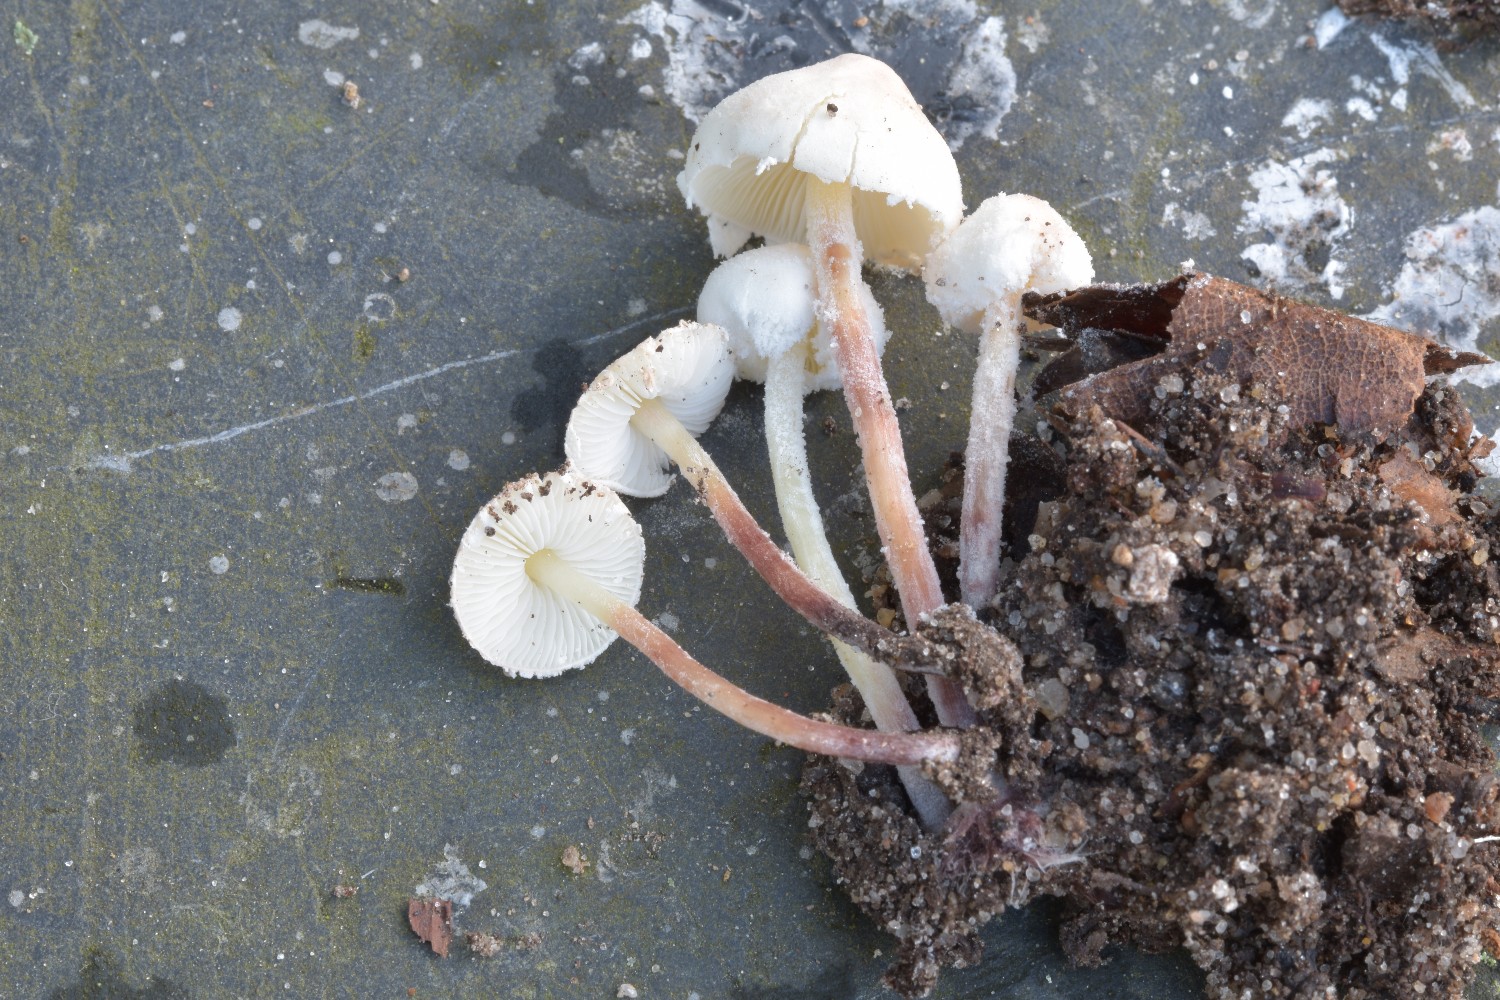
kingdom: Fungi
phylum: Basidiomycota
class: Agaricomycetes
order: Agaricales
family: Agaricaceae
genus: Cystolepiota
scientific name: Cystolepiota seminuda
